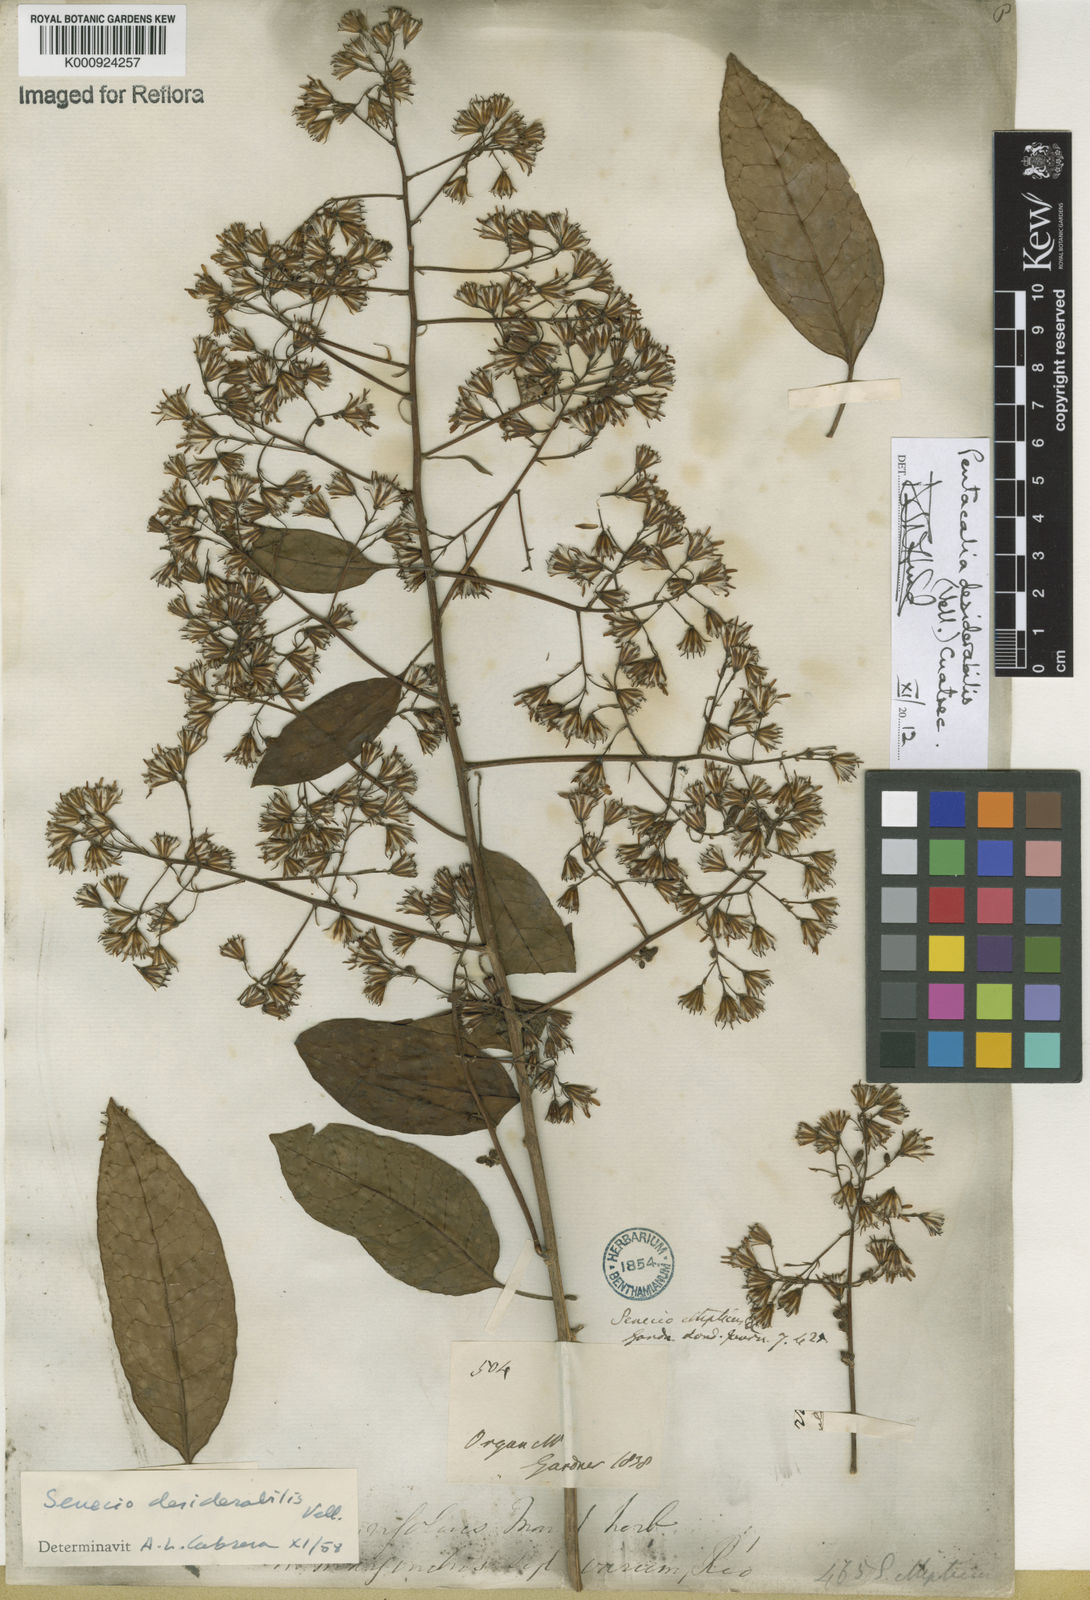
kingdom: Plantae
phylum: Tracheophyta
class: Magnoliopsida
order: Asterales
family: Asteraceae
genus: Pentacalia
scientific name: Pentacalia desiderabilis
